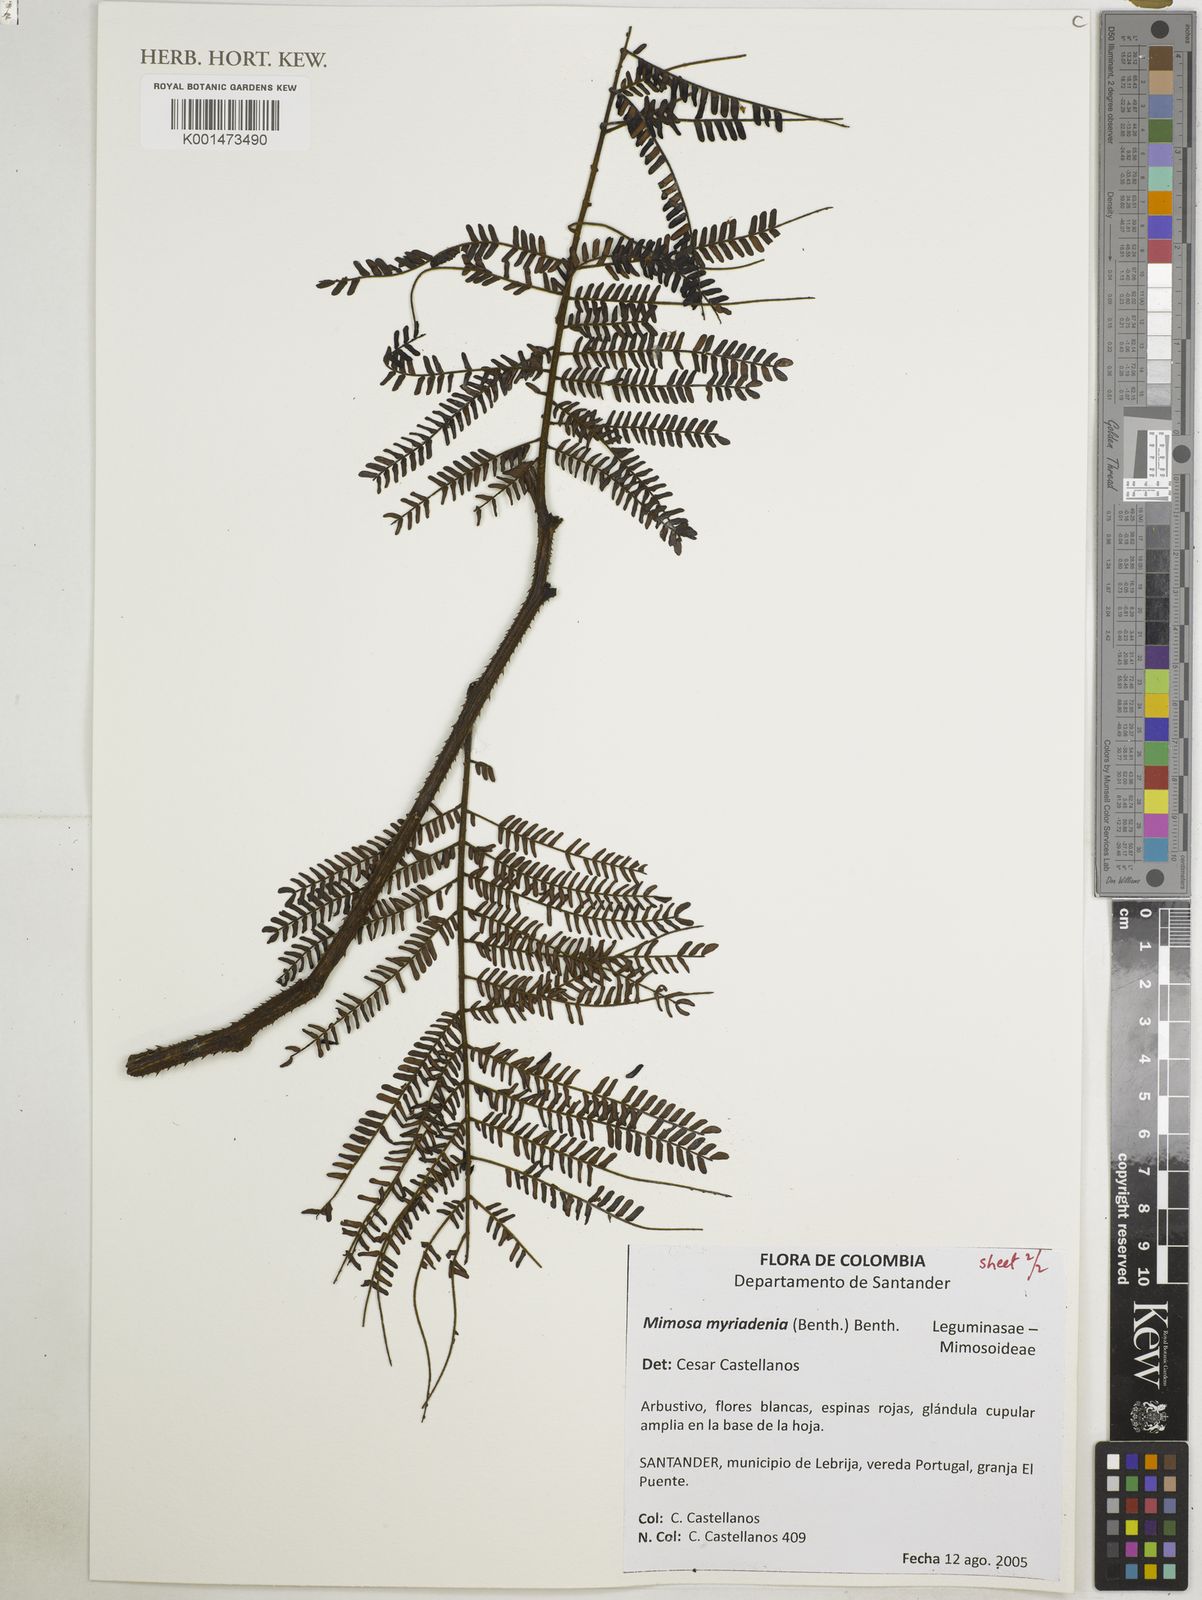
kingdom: Plantae
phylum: Tracheophyta
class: Magnoliopsida
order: Fabales
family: Fabaceae
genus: Mimosa
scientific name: Mimosa myriadenia
